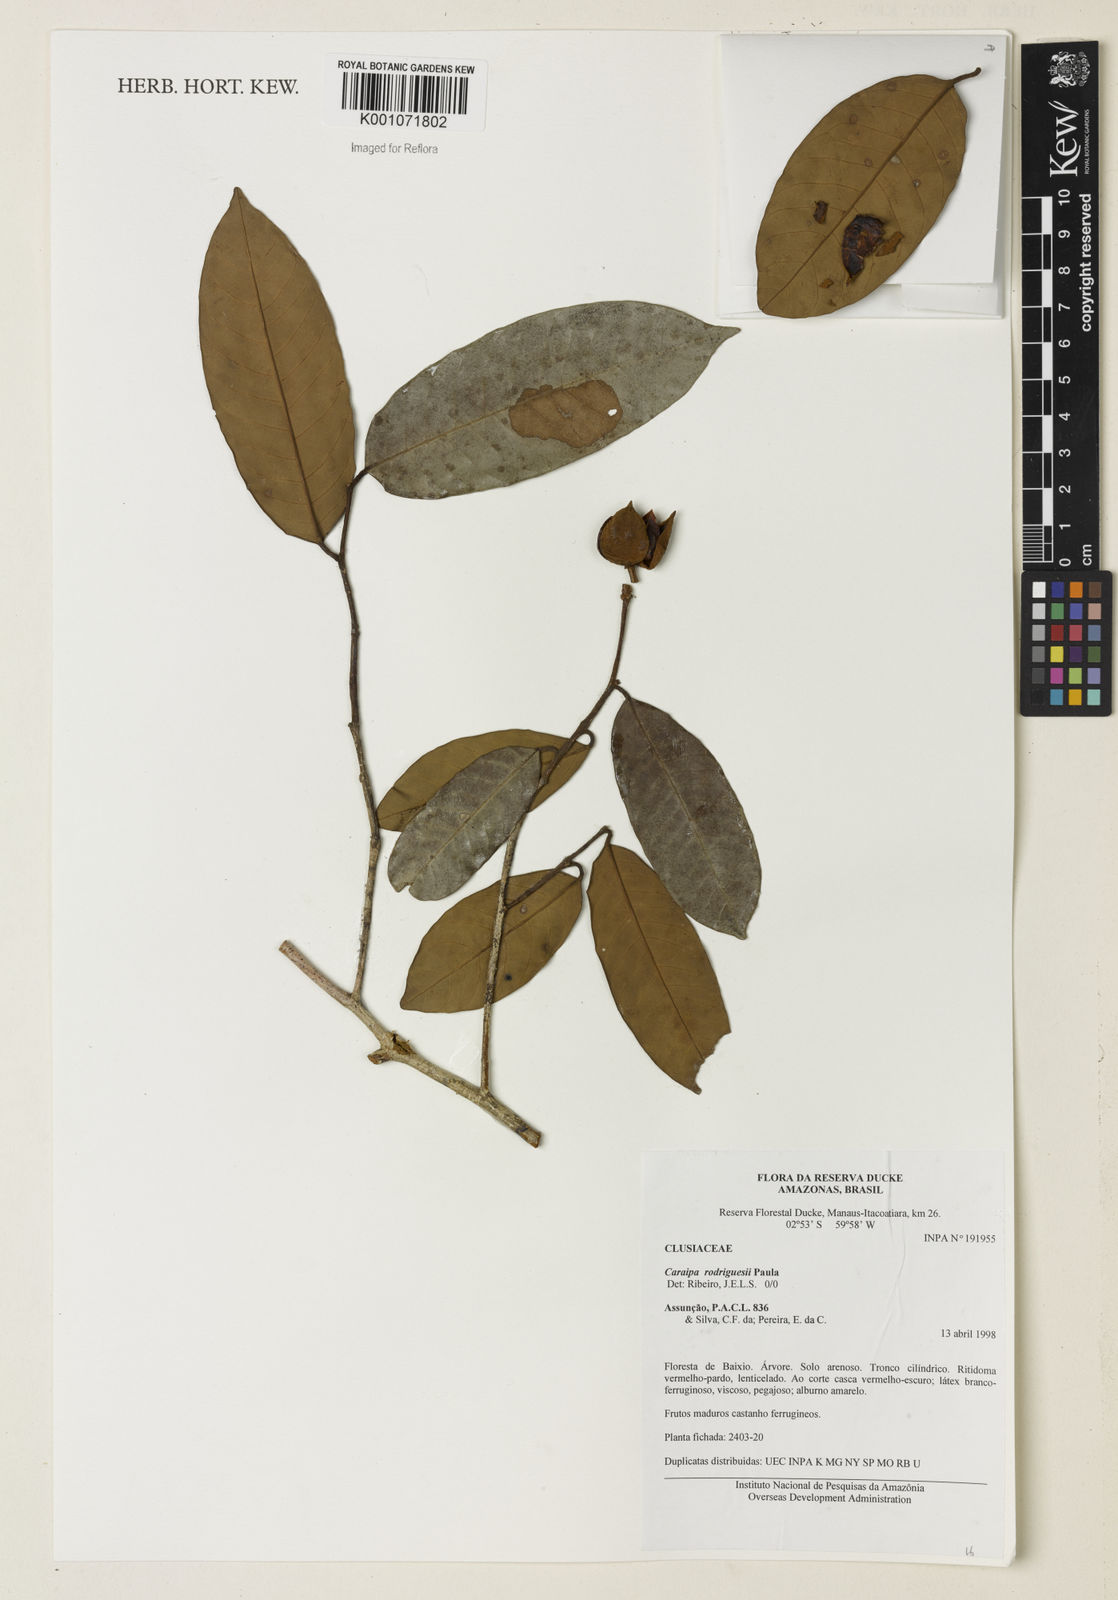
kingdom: Plantae
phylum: Tracheophyta
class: Magnoliopsida
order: Malpighiales
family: Calophyllaceae
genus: Caraipa
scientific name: Caraipa rodriguesii
